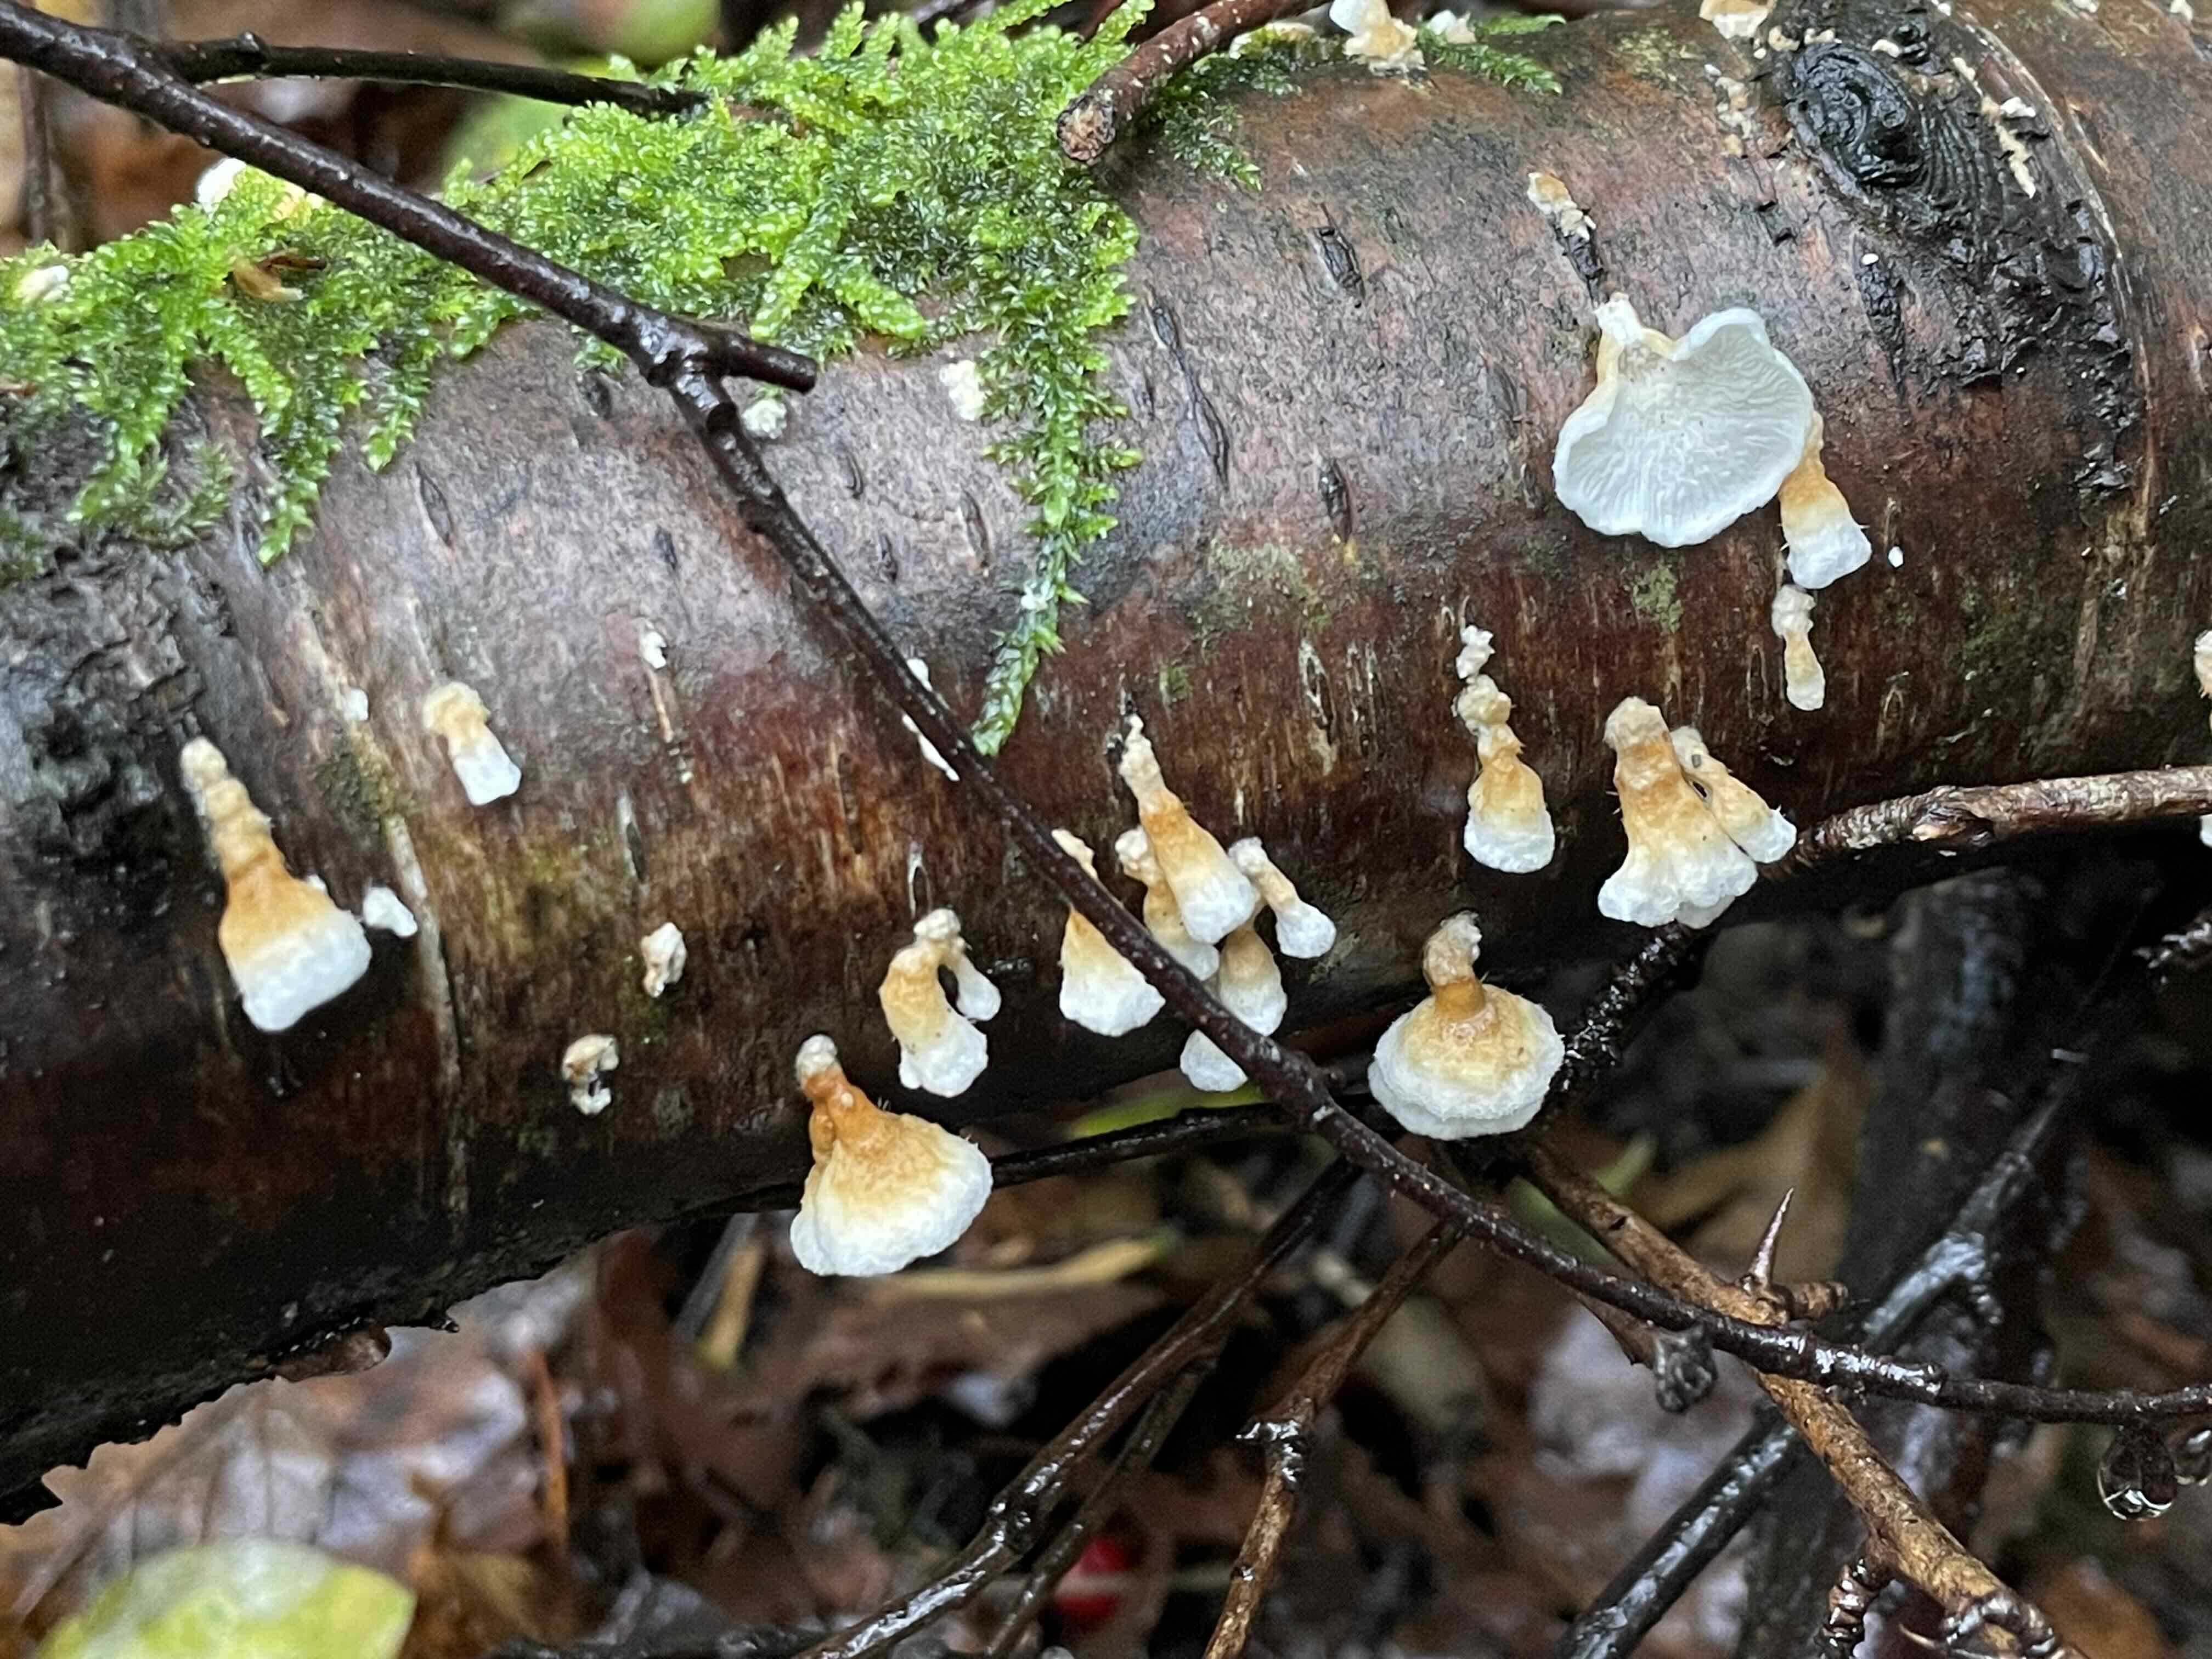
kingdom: Fungi
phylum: Basidiomycota
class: Agaricomycetes
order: Amylocorticiales
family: Amylocorticiaceae
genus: Plicaturopsis
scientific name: Plicaturopsis crispa
